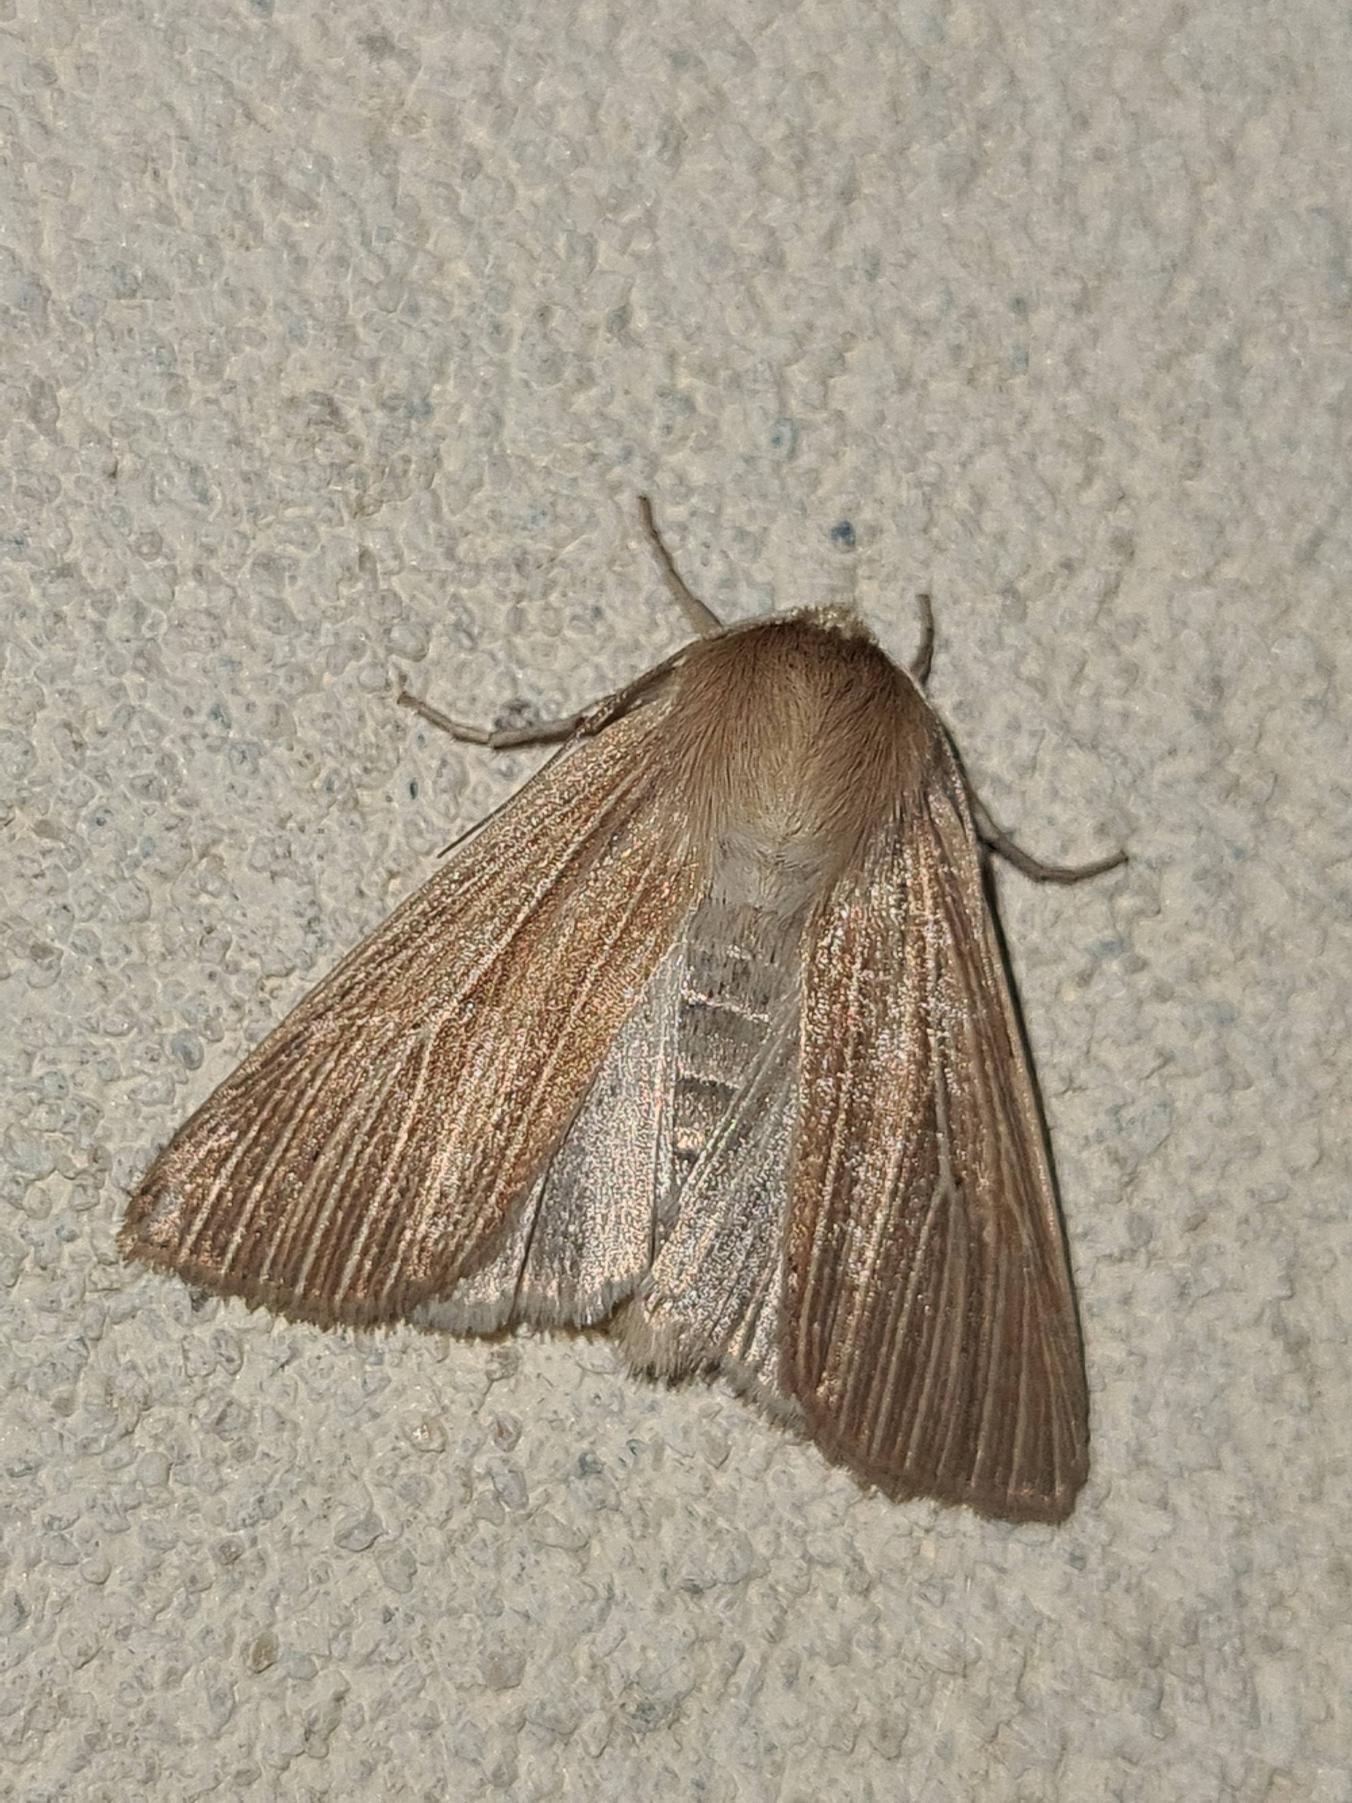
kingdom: Animalia
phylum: Arthropoda
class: Insecta
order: Lepidoptera
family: Noctuidae
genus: Mythimna
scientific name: Mythimna pallens
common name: Halmugle
